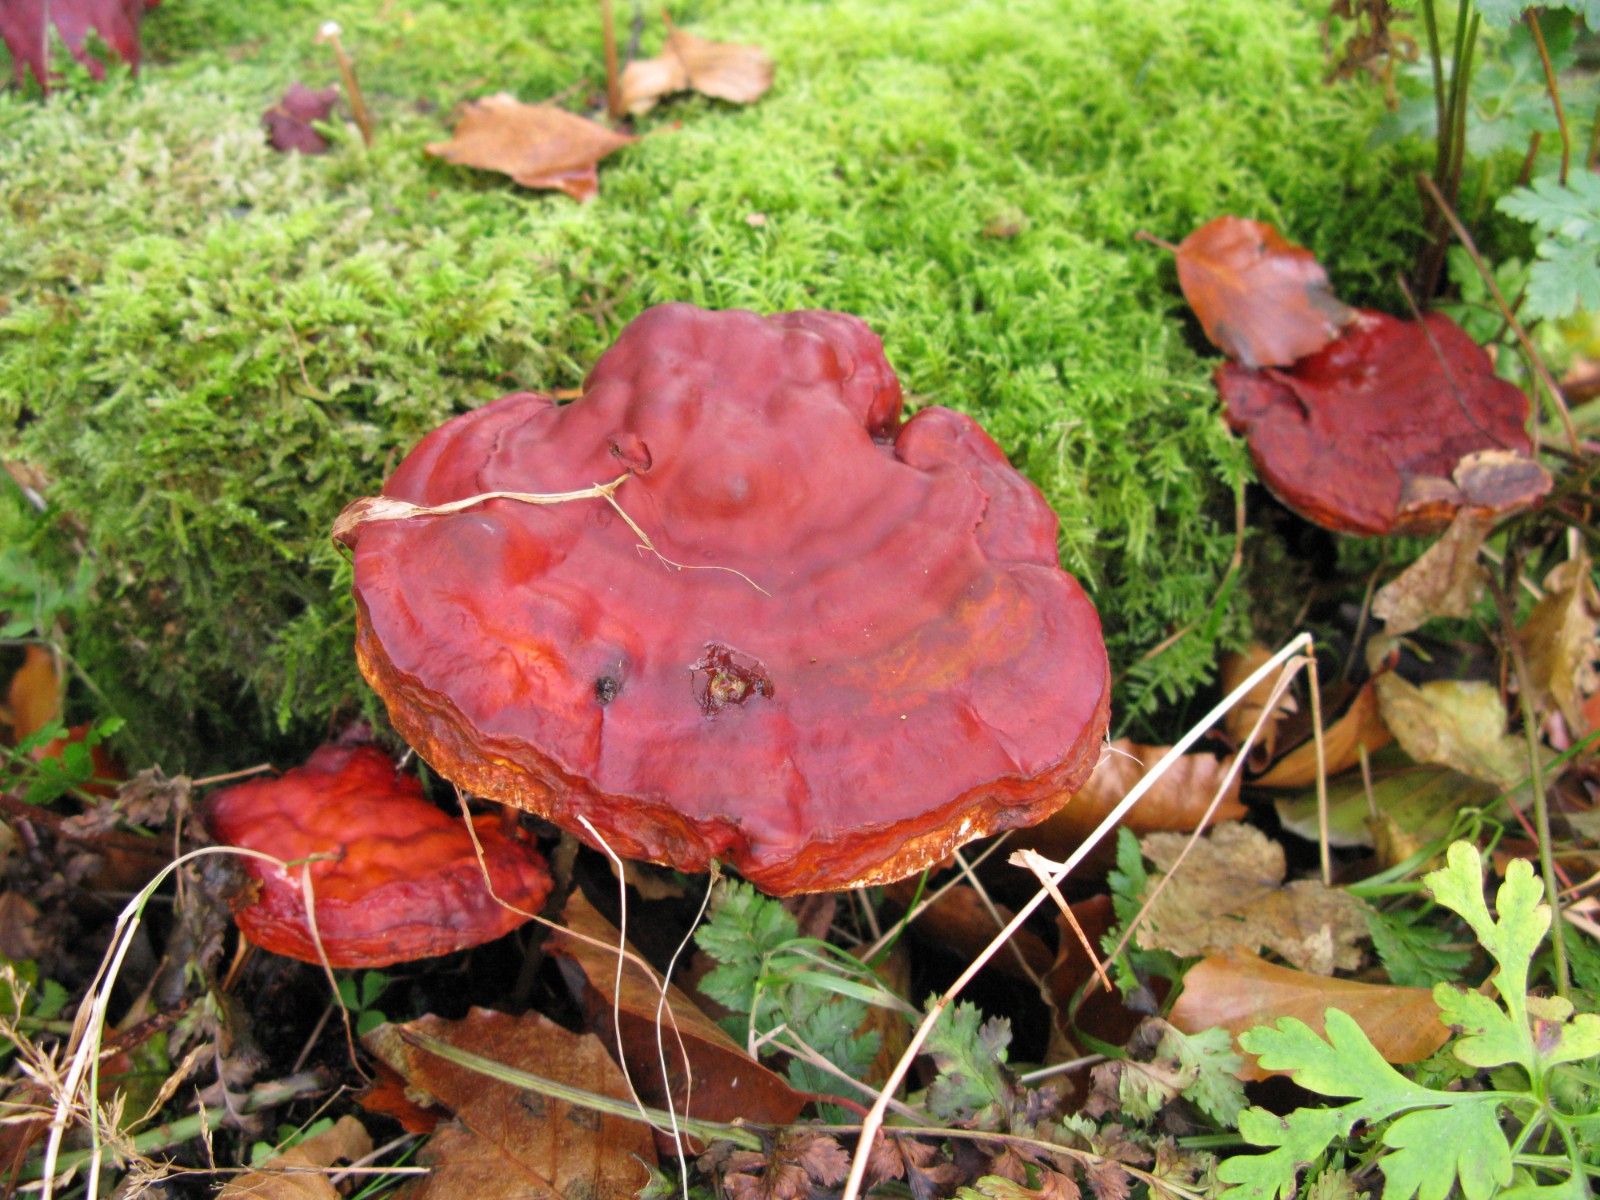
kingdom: Fungi
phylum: Basidiomycota
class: Agaricomycetes
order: Polyporales
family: Polyporaceae
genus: Ganoderma
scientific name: Ganoderma lucidum
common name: skinnende lakporesvamp
